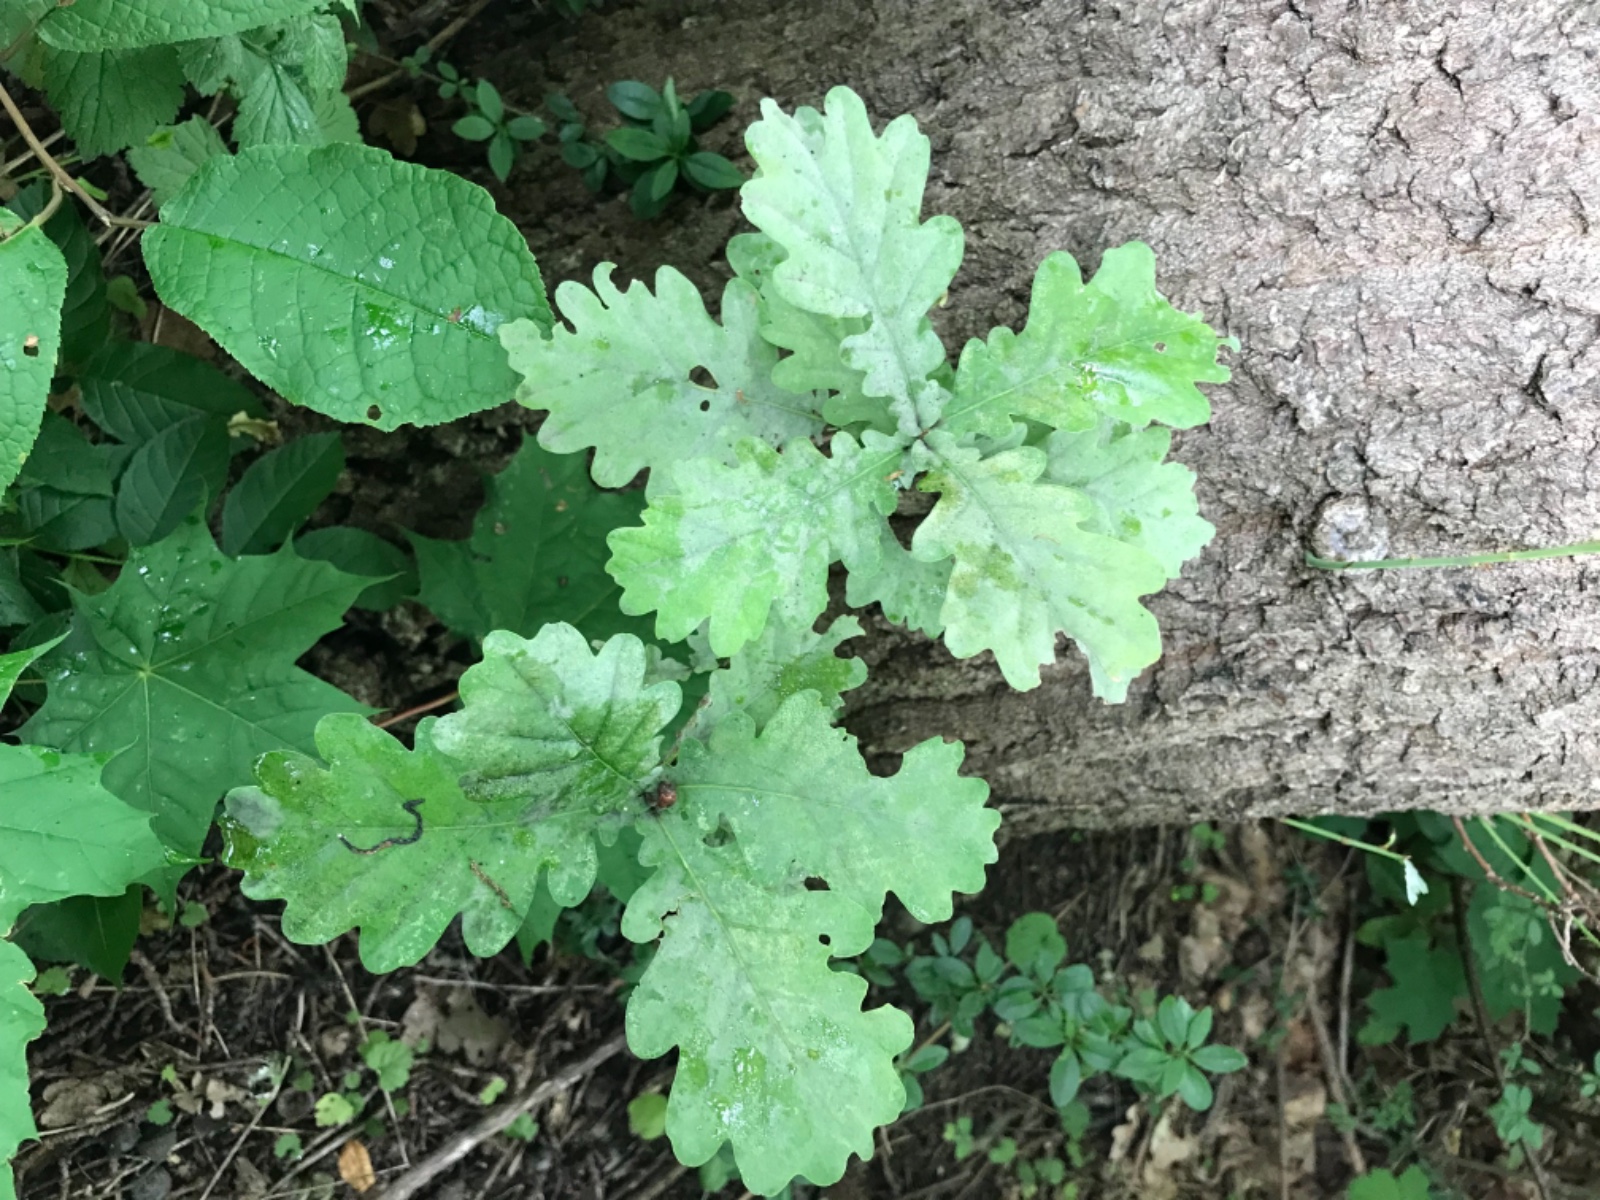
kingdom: Fungi
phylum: Ascomycota
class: Leotiomycetes
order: Helotiales
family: Erysiphaceae
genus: Erysiphe
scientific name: Erysiphe alphitoides
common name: ege-meldug
